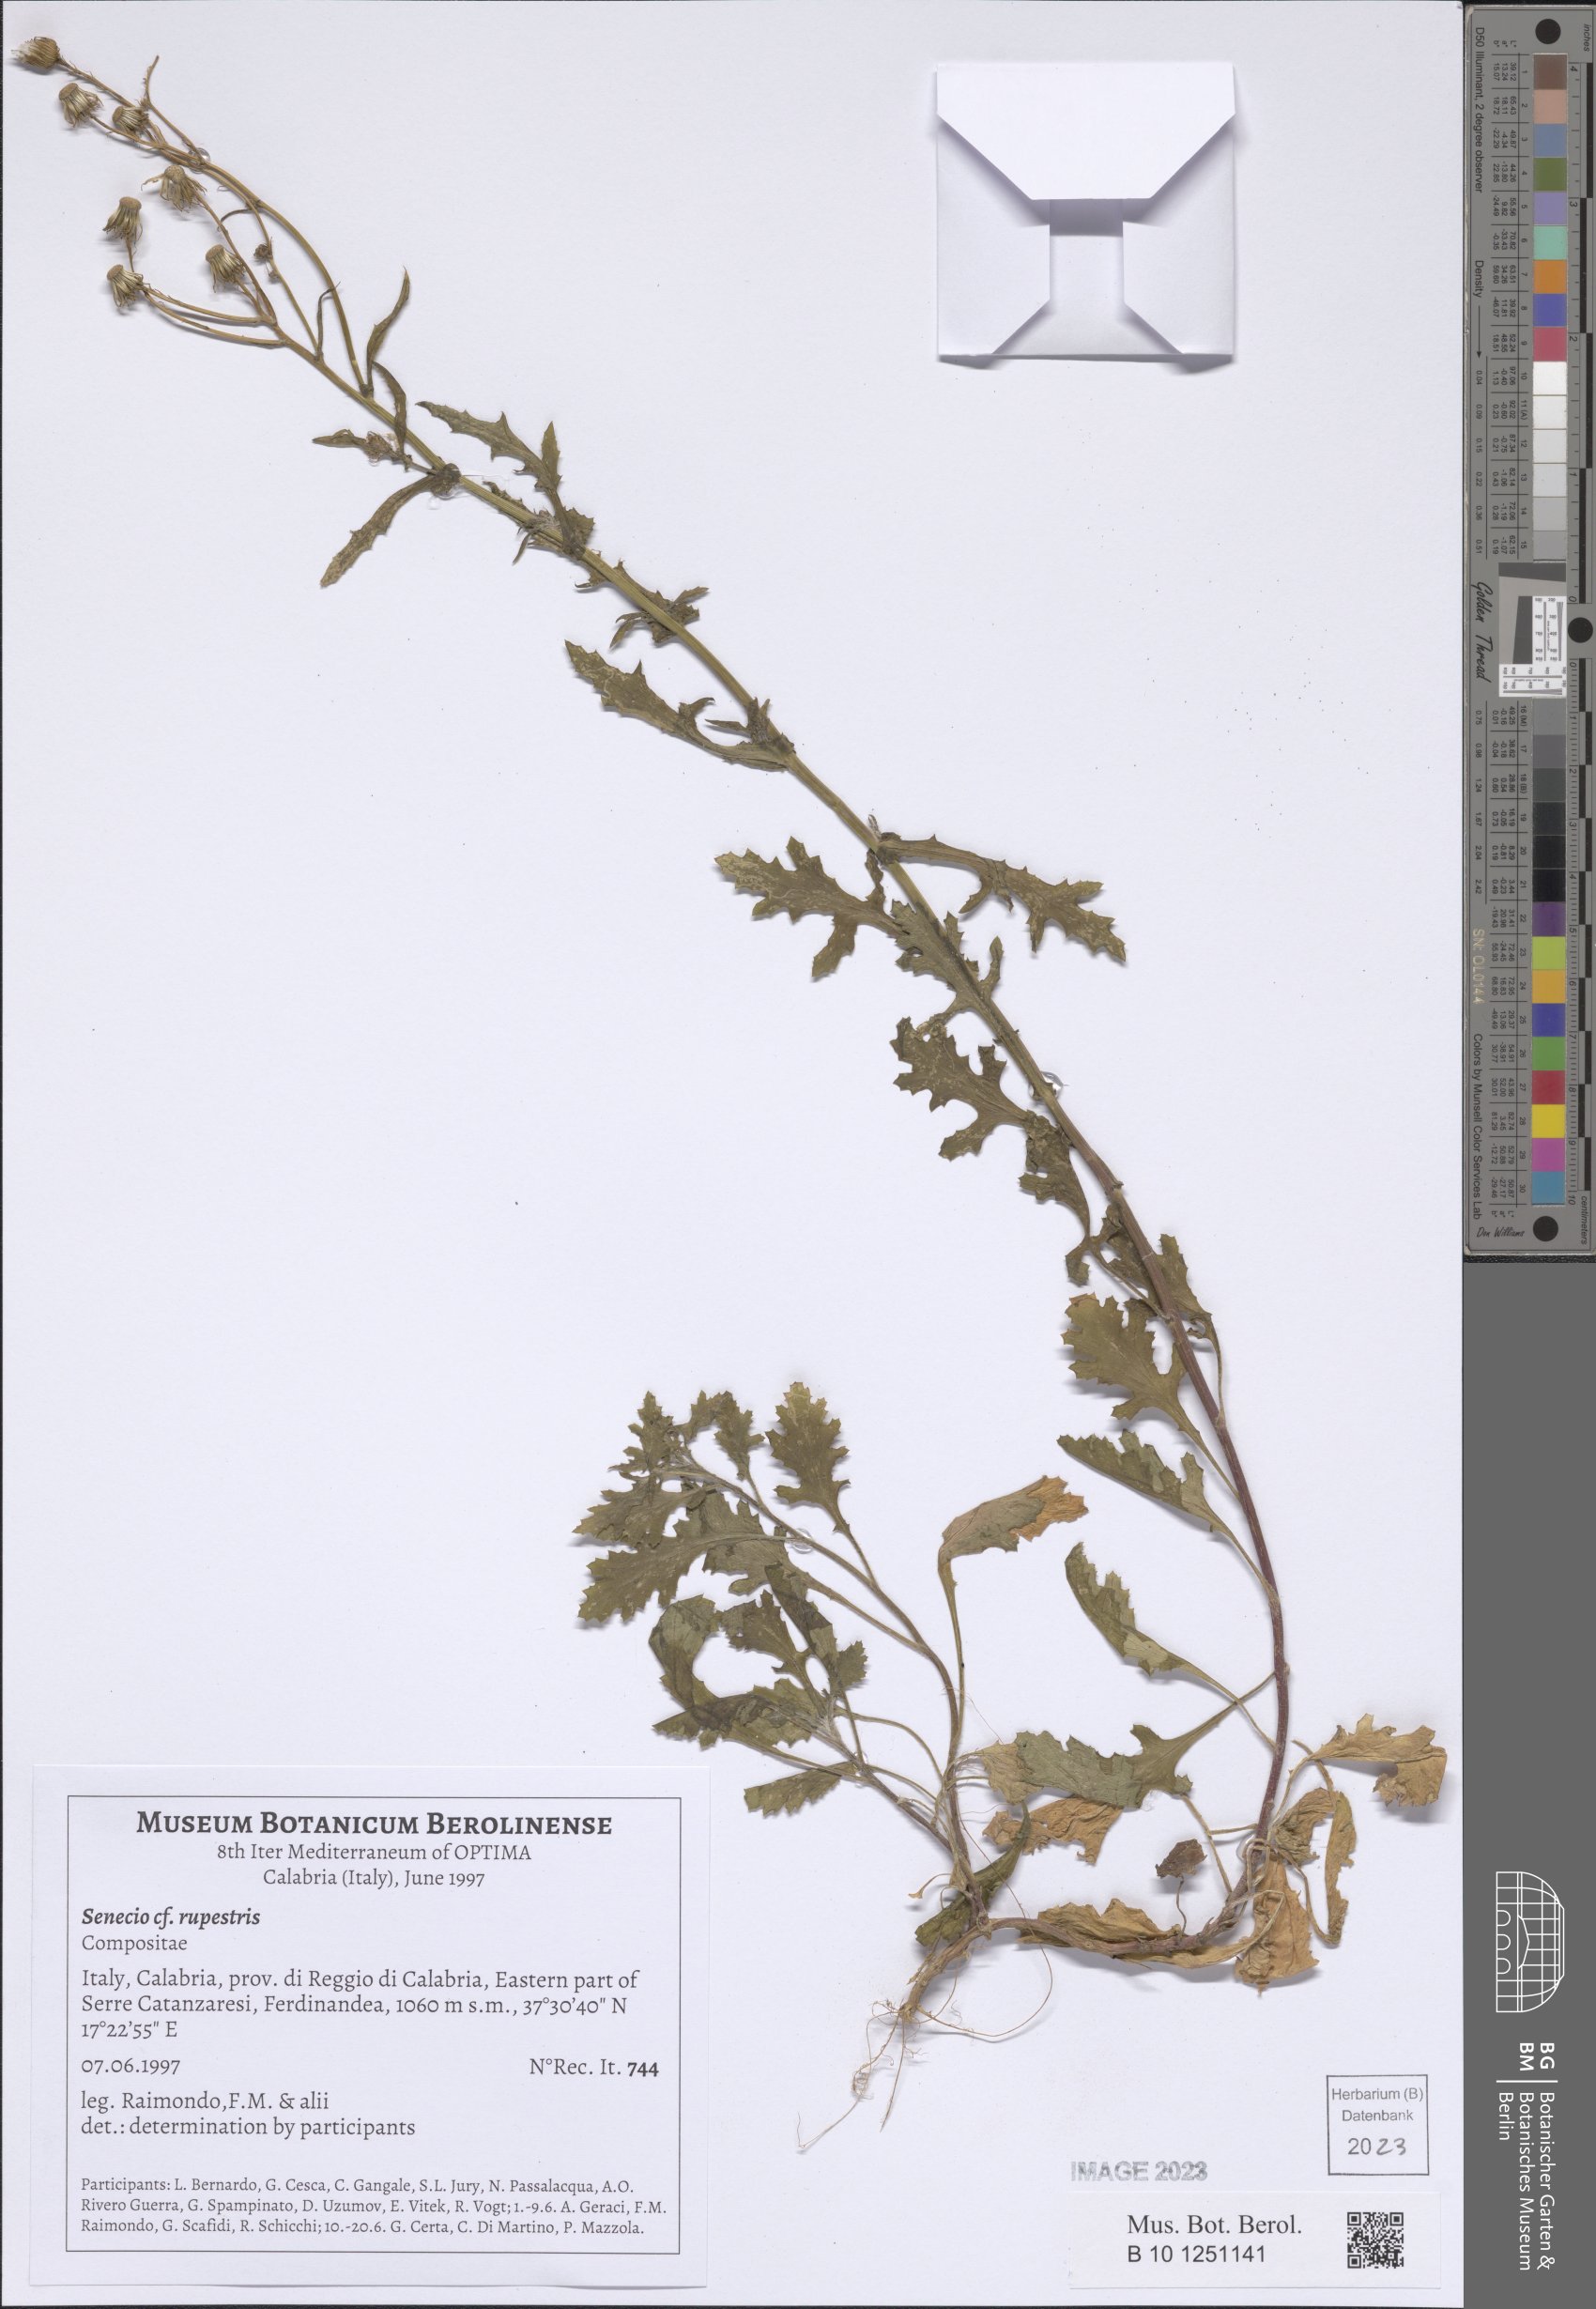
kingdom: Plantae
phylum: Tracheophyta
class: Magnoliopsida
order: Asterales
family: Asteraceae
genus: Senecio
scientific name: Senecio rupestris
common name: Rock ragwort
